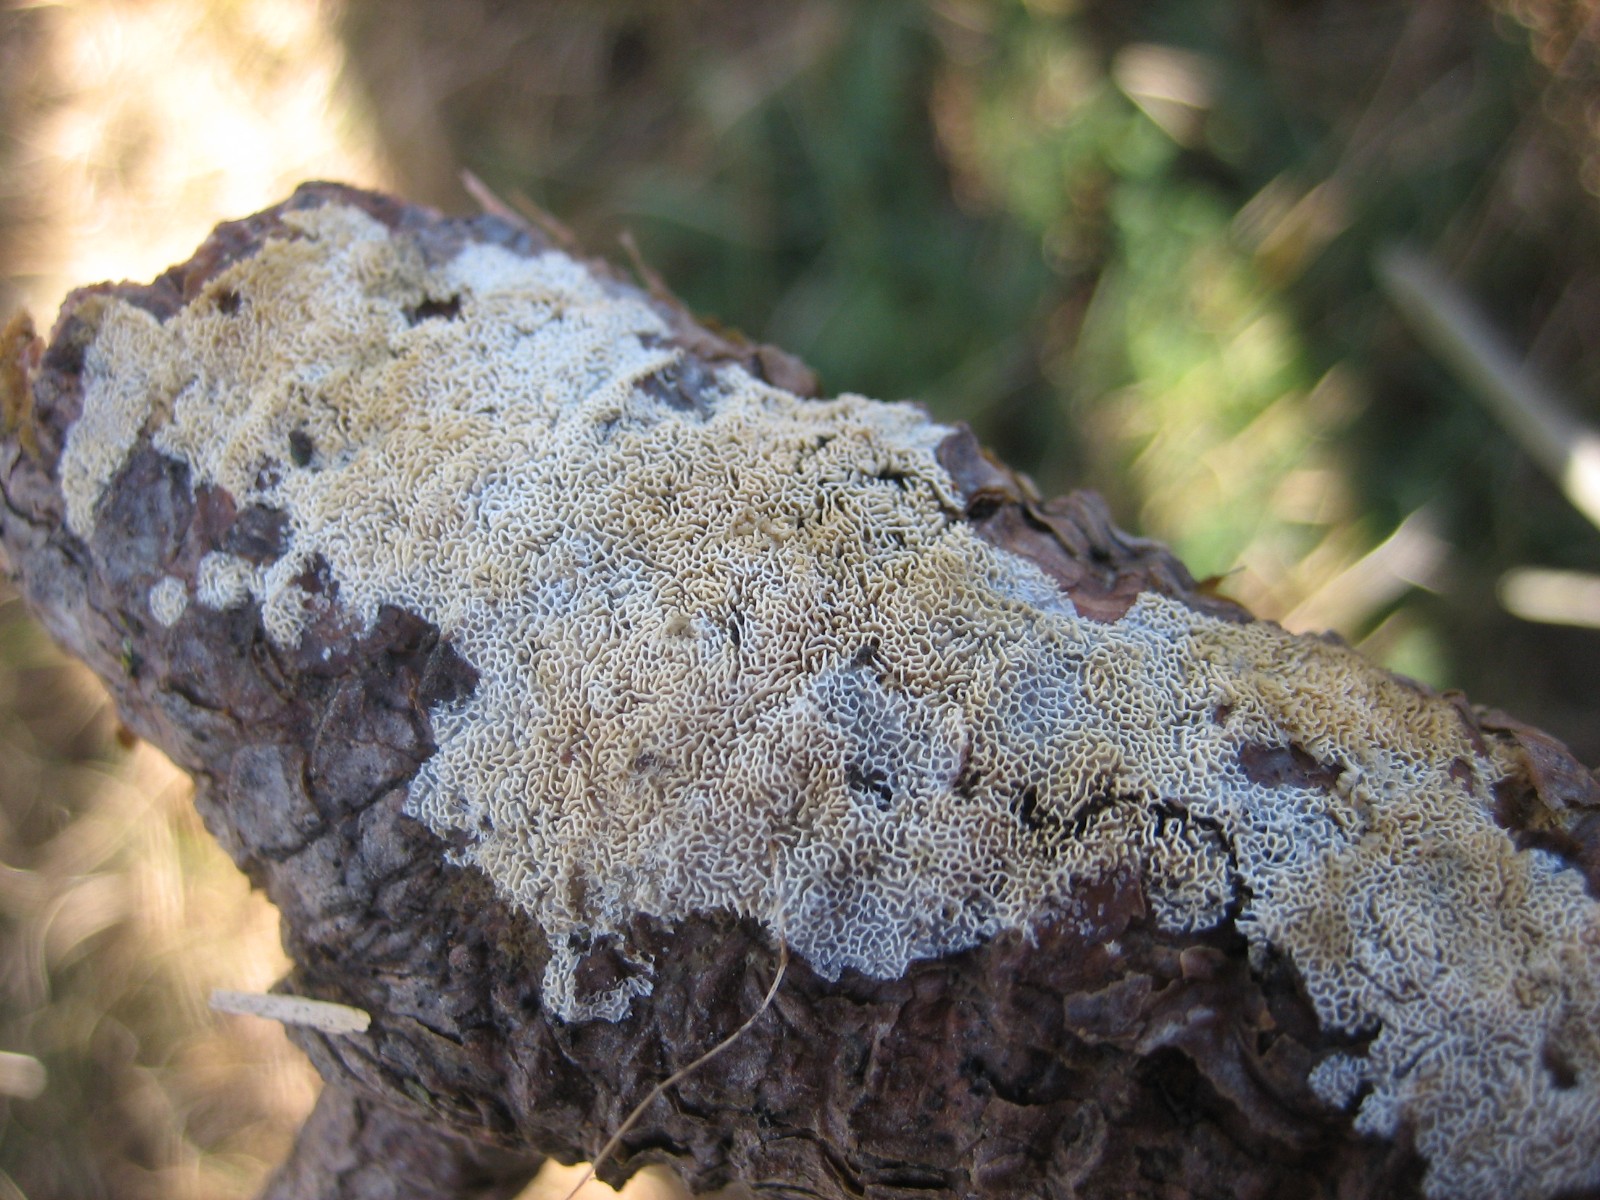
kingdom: Fungi
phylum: Basidiomycota
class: Agaricomycetes
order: Polyporales
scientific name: Polyporales
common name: poresvampordenen
